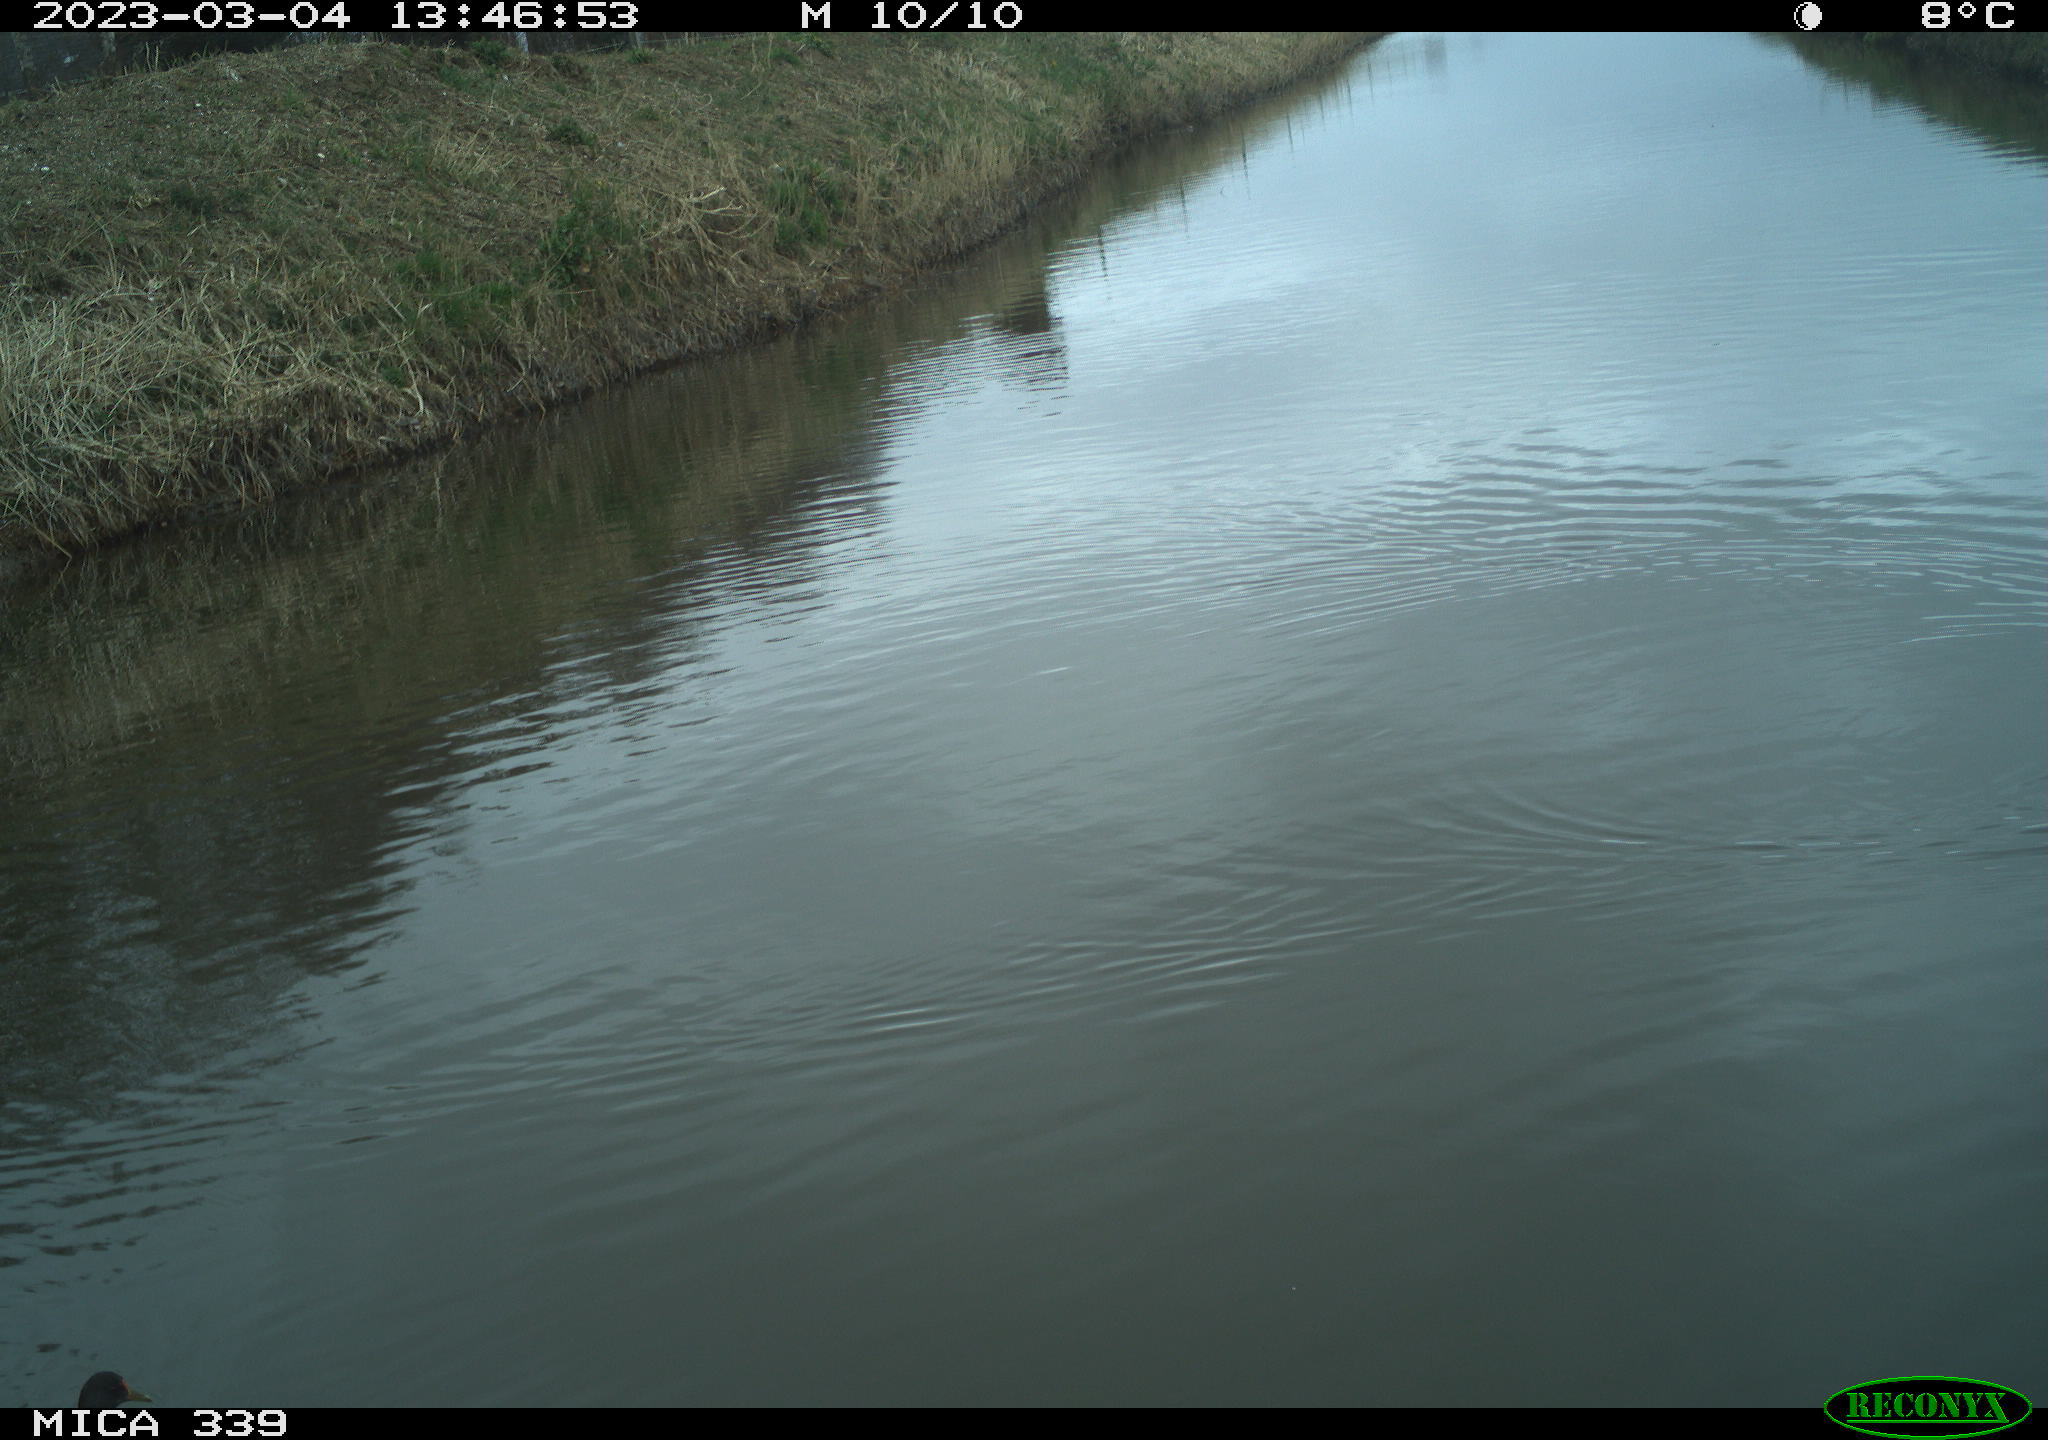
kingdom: Animalia
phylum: Chordata
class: Aves
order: Gruiformes
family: Rallidae
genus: Gallinula
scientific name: Gallinula chloropus
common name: Common moorhen
